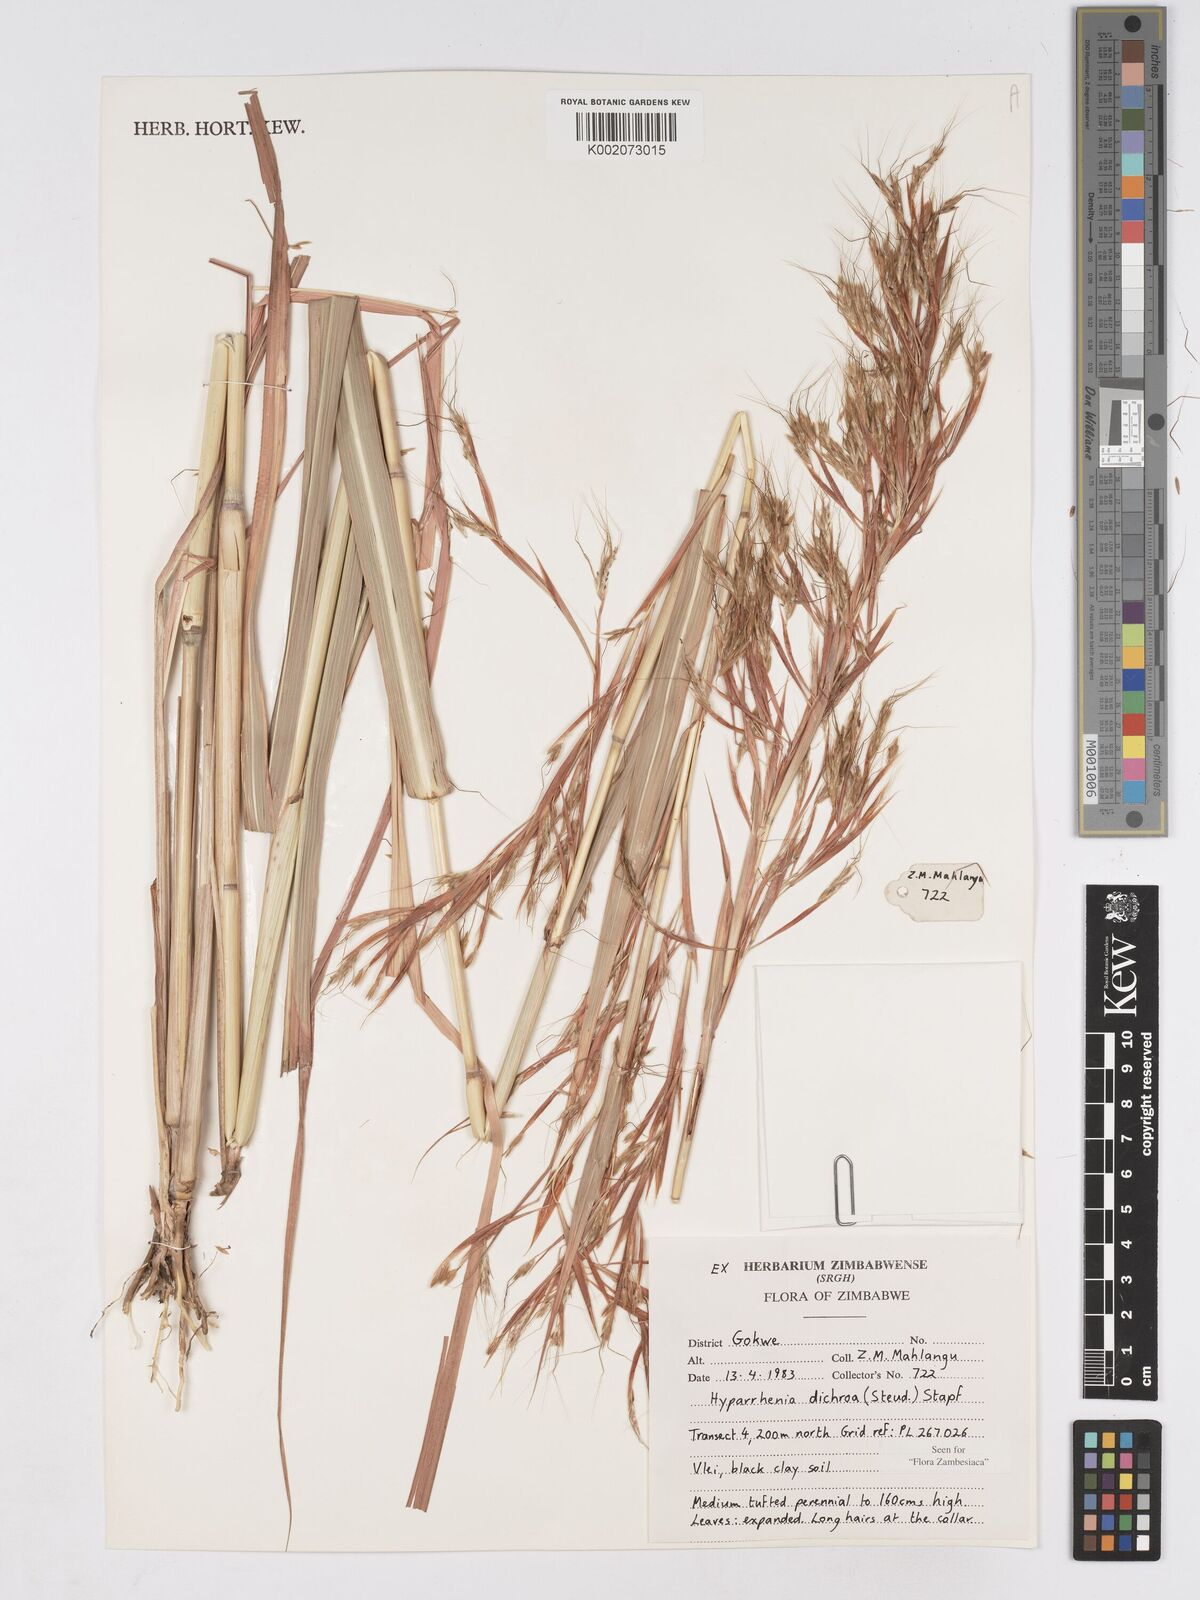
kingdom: Plantae
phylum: Tracheophyta
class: Liliopsida
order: Poales
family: Poaceae
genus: Hyparrhenia
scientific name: Hyparrhenia dichroa
